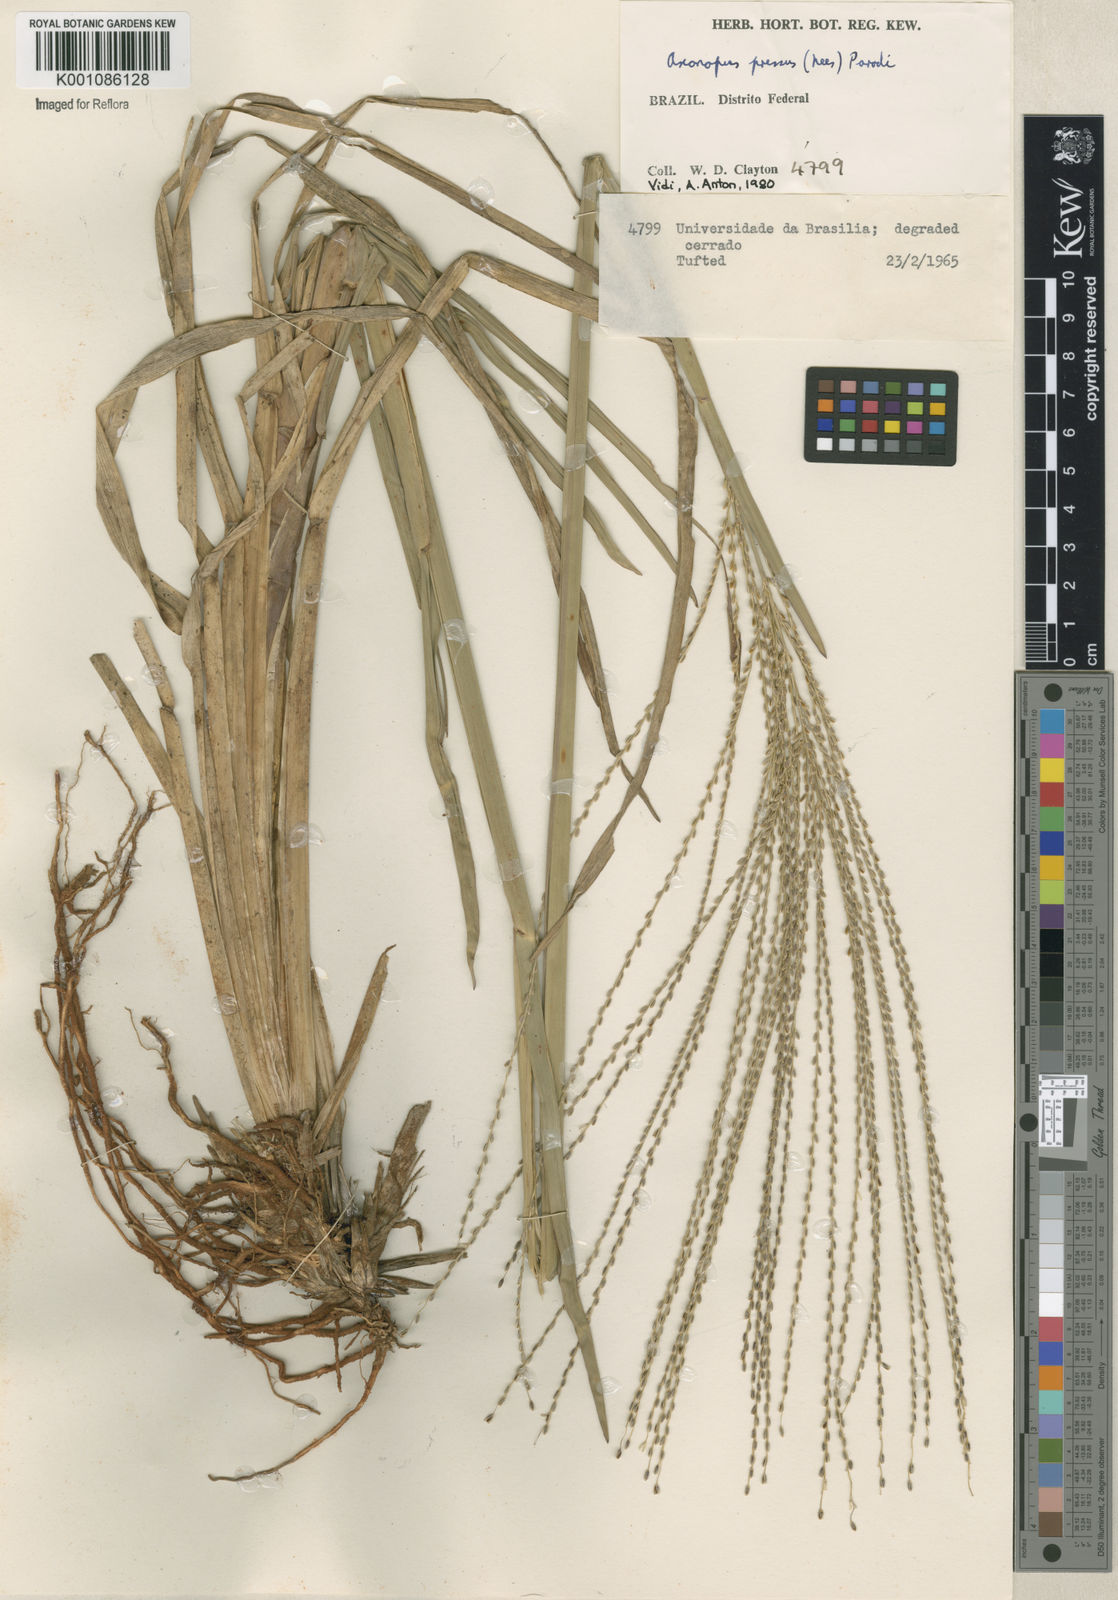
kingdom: Plantae
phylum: Tracheophyta
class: Liliopsida
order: Poales
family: Poaceae
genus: Axonopus
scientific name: Axonopus pressus
